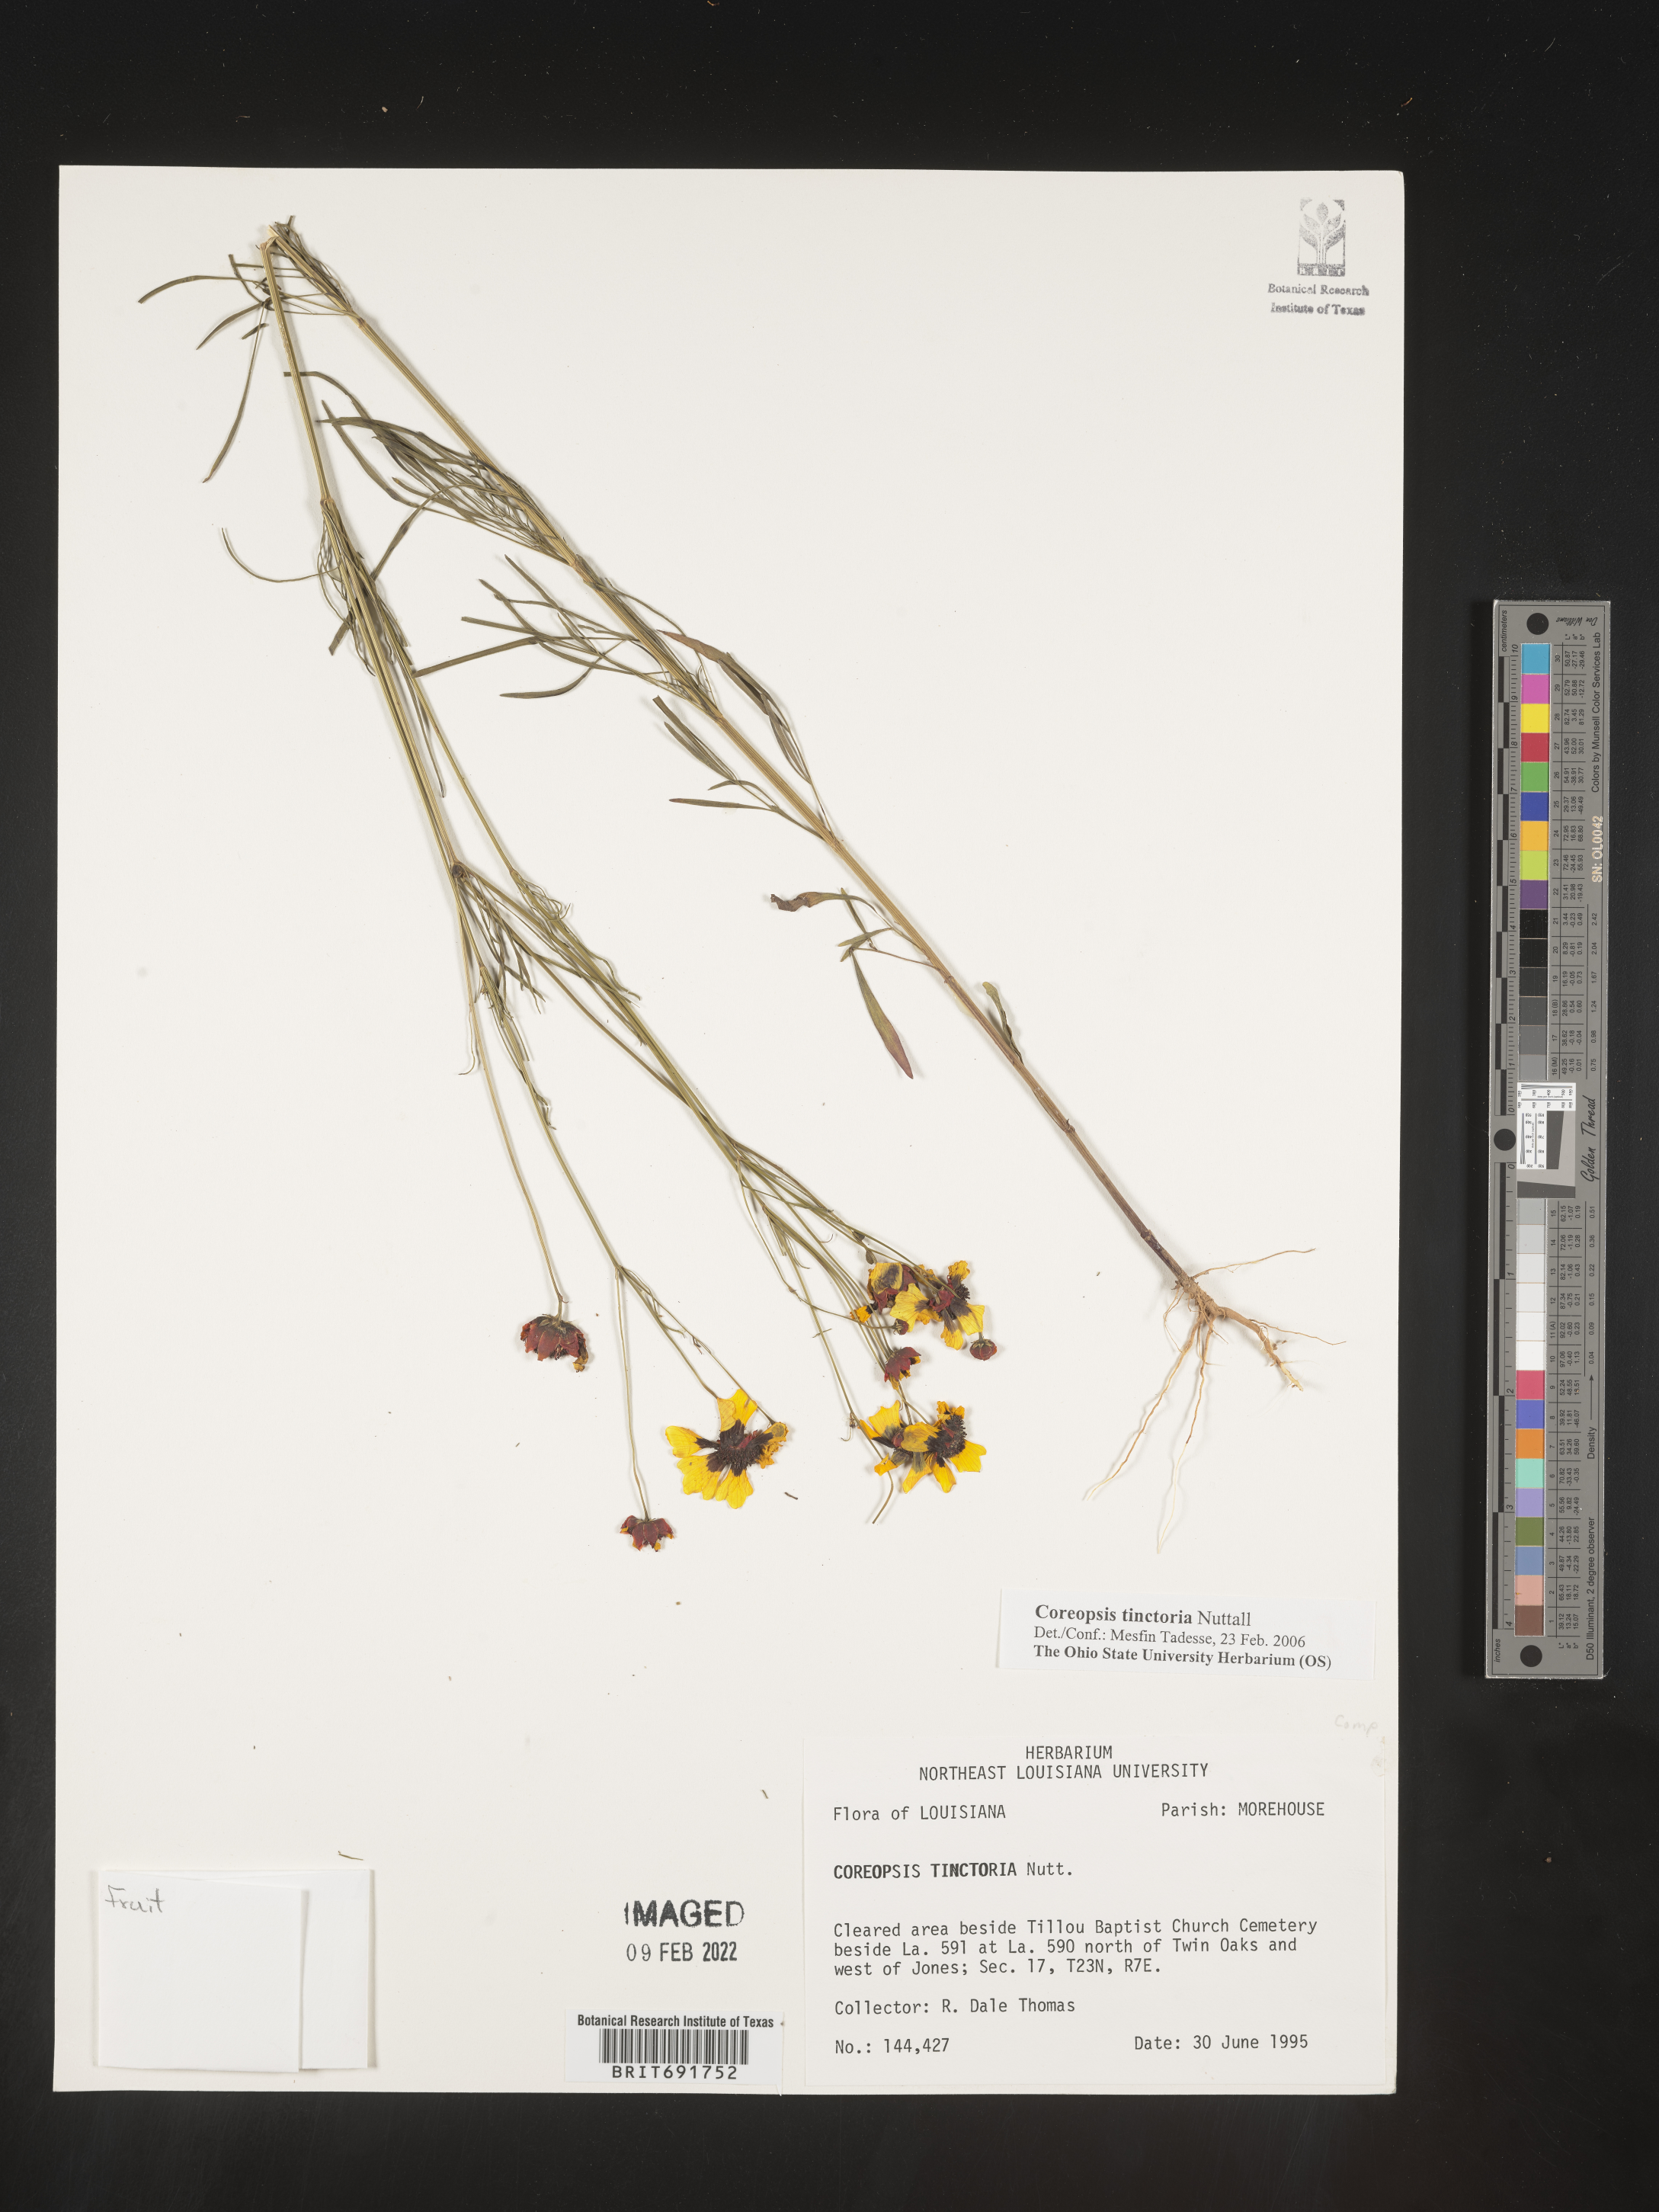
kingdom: Plantae
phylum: Tracheophyta
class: Magnoliopsida
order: Asterales
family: Asteraceae
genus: Coreopsis
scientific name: Coreopsis tinctoria
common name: Garden tickseed
